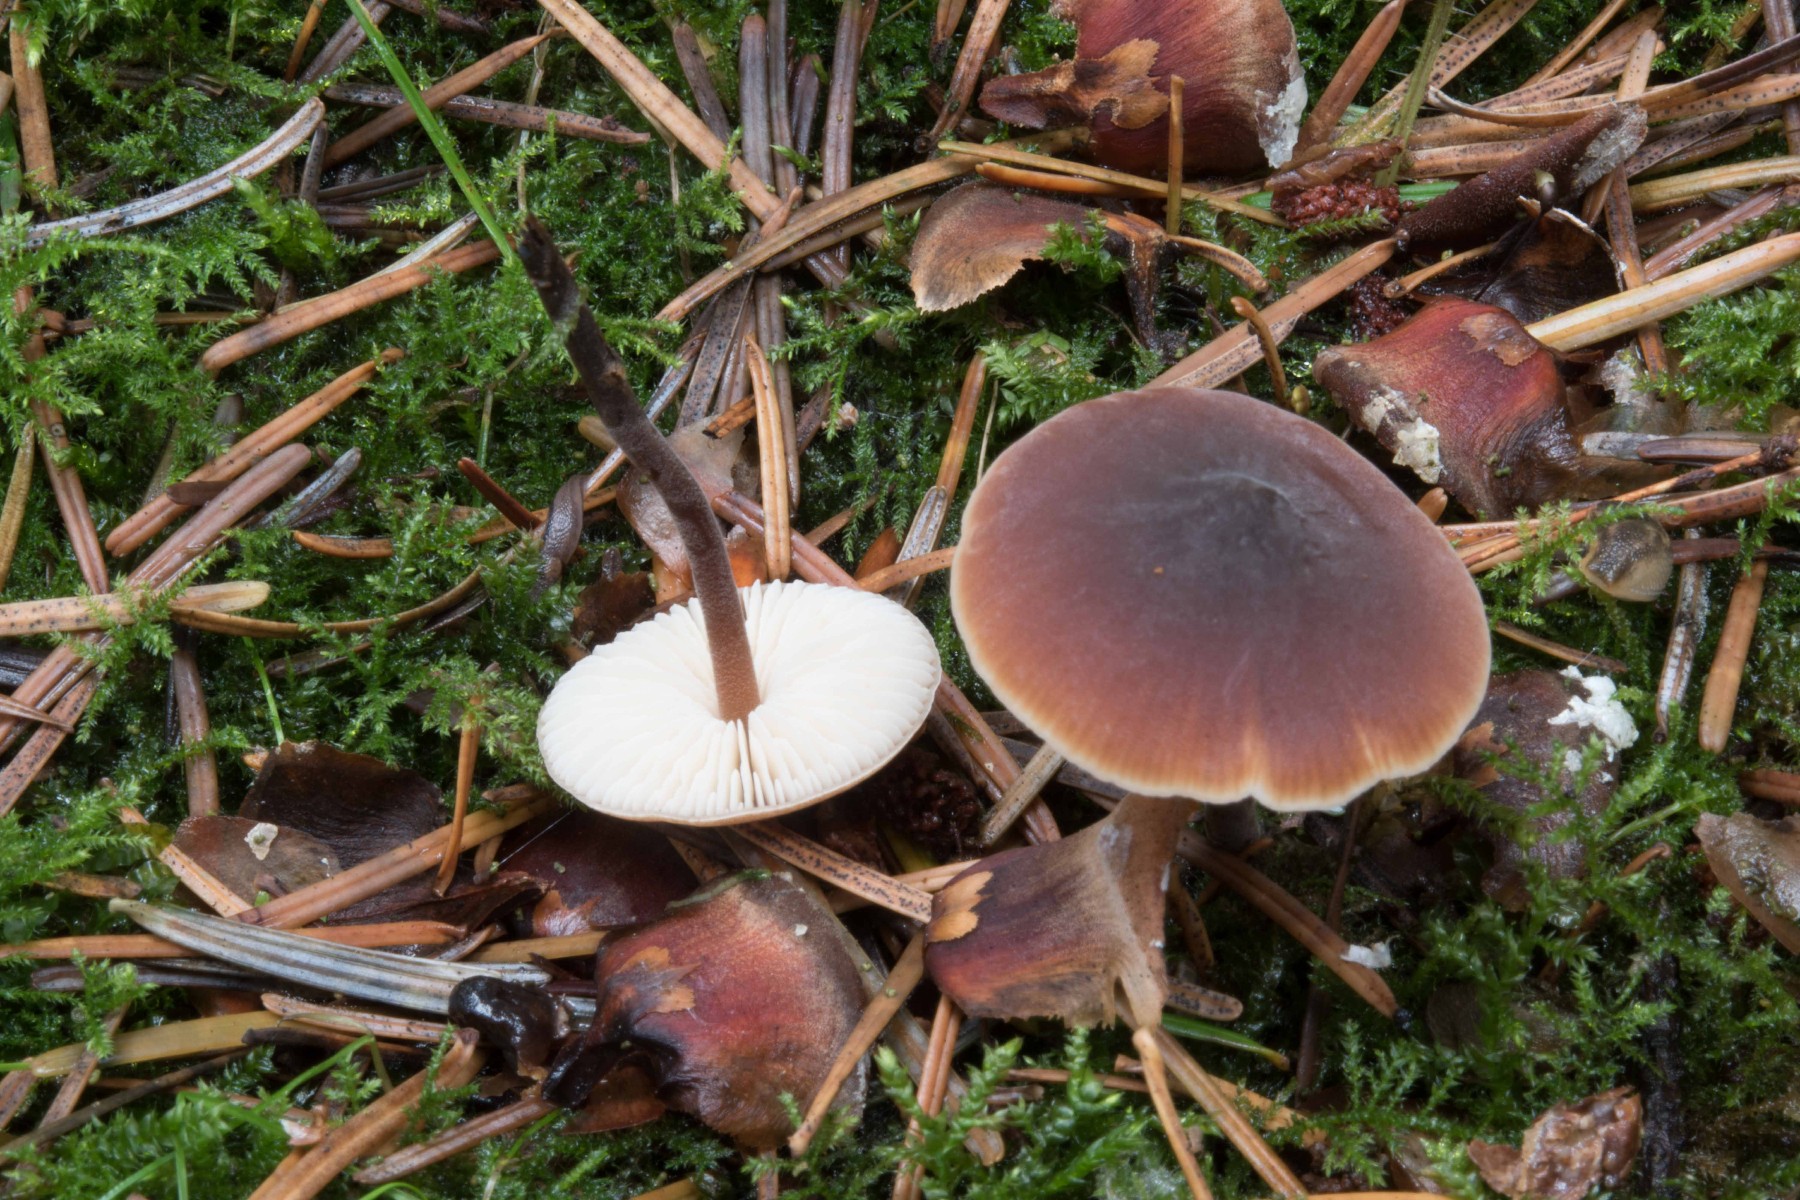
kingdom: Fungi
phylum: Basidiomycota
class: Agaricomycetes
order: Agaricales
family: Macrocystidiaceae
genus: Macrocystidia
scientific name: Macrocystidia cucumis
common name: agurkehat
